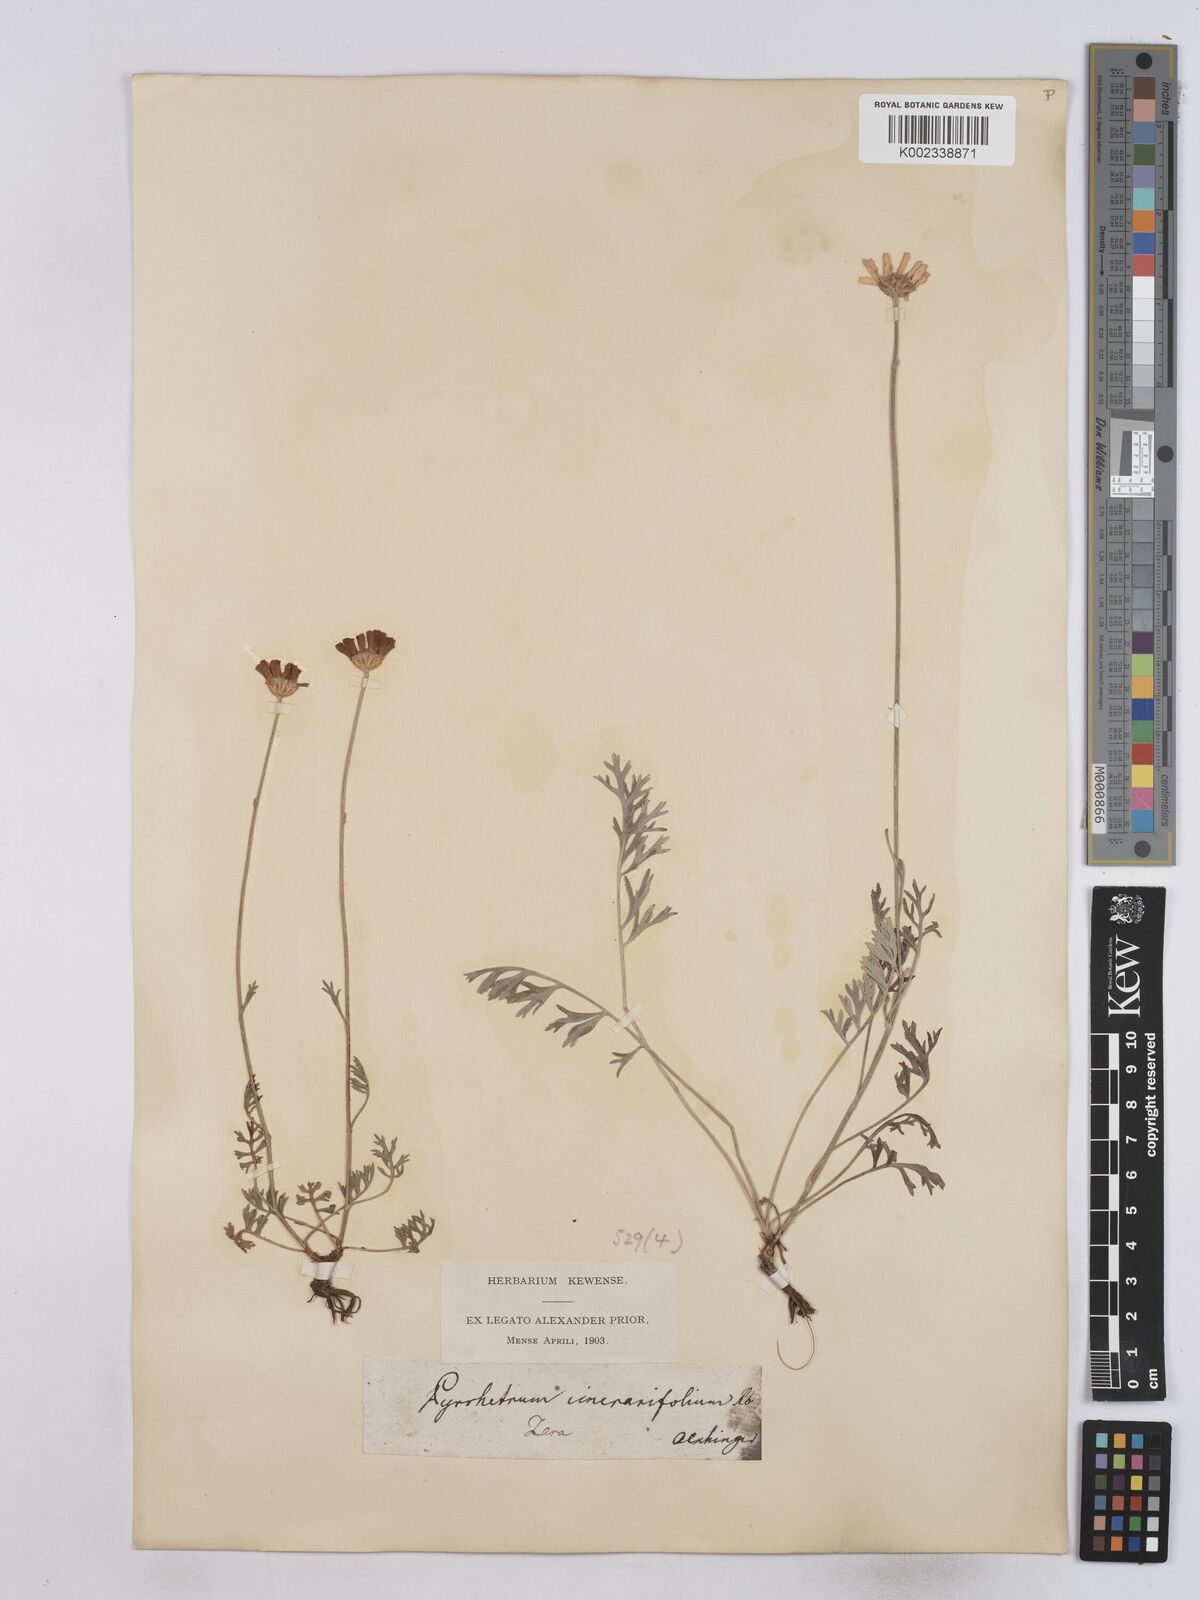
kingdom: Plantae
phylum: Tracheophyta
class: Magnoliopsida
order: Asterales
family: Asteraceae
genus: Tanacetum
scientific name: Tanacetum cinerariifolium
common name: Dalmatian pyrethrum
